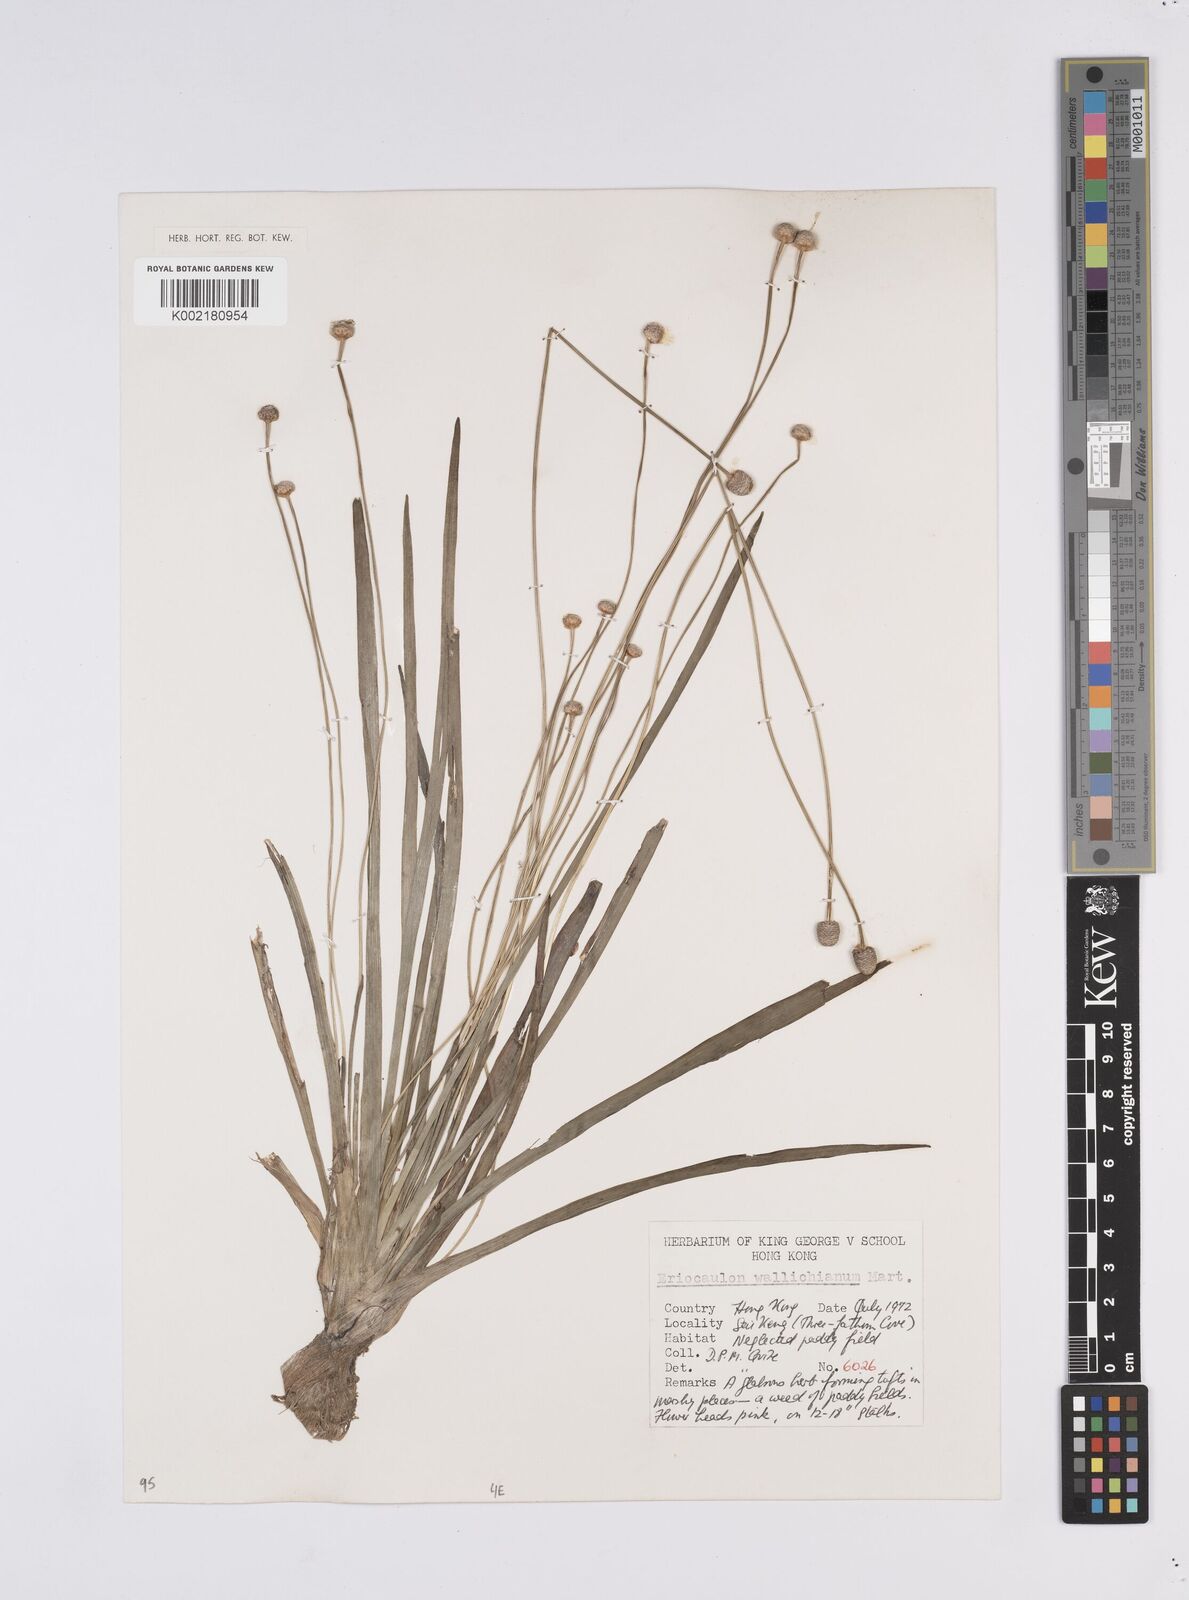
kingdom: Plantae
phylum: Tracheophyta
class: Liliopsida
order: Poales
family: Eriocaulaceae
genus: Eriocaulon
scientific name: Eriocaulon australe
